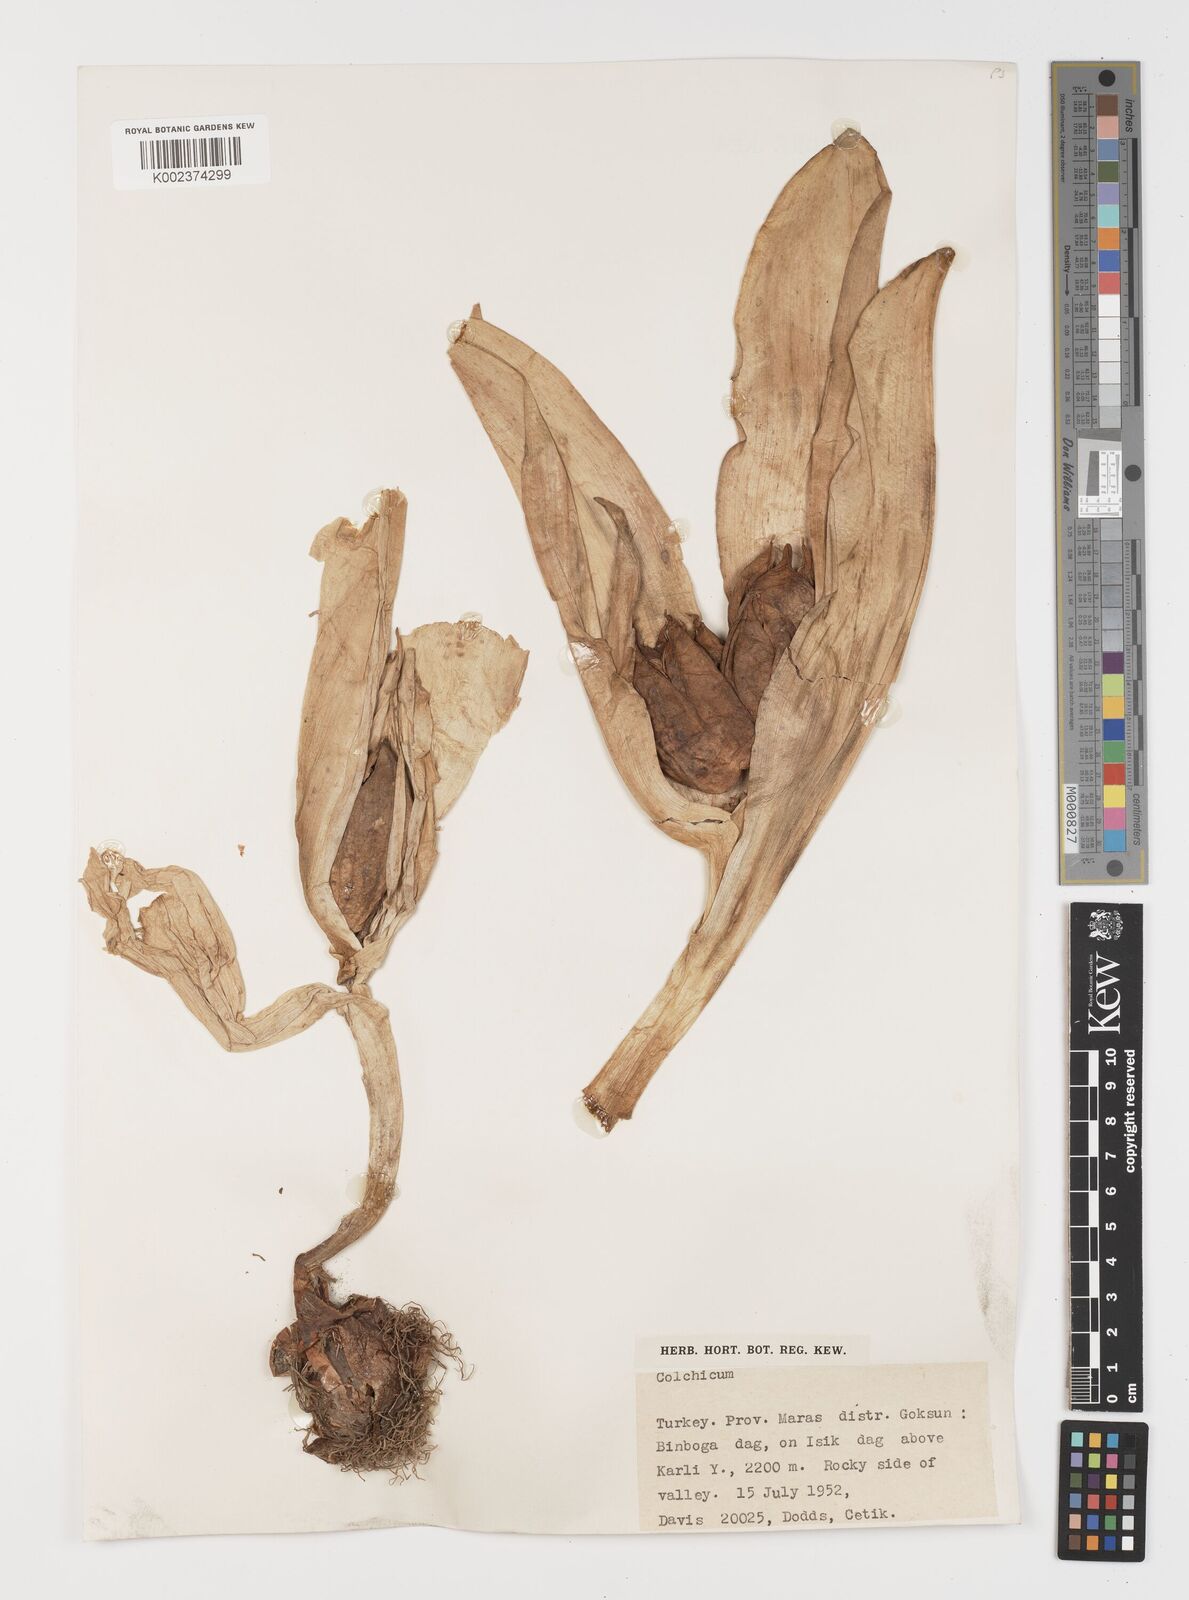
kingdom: Plantae
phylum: Tracheophyta
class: Liliopsida
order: Liliales
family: Colchicaceae
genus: Colchicum
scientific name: Colchicum
